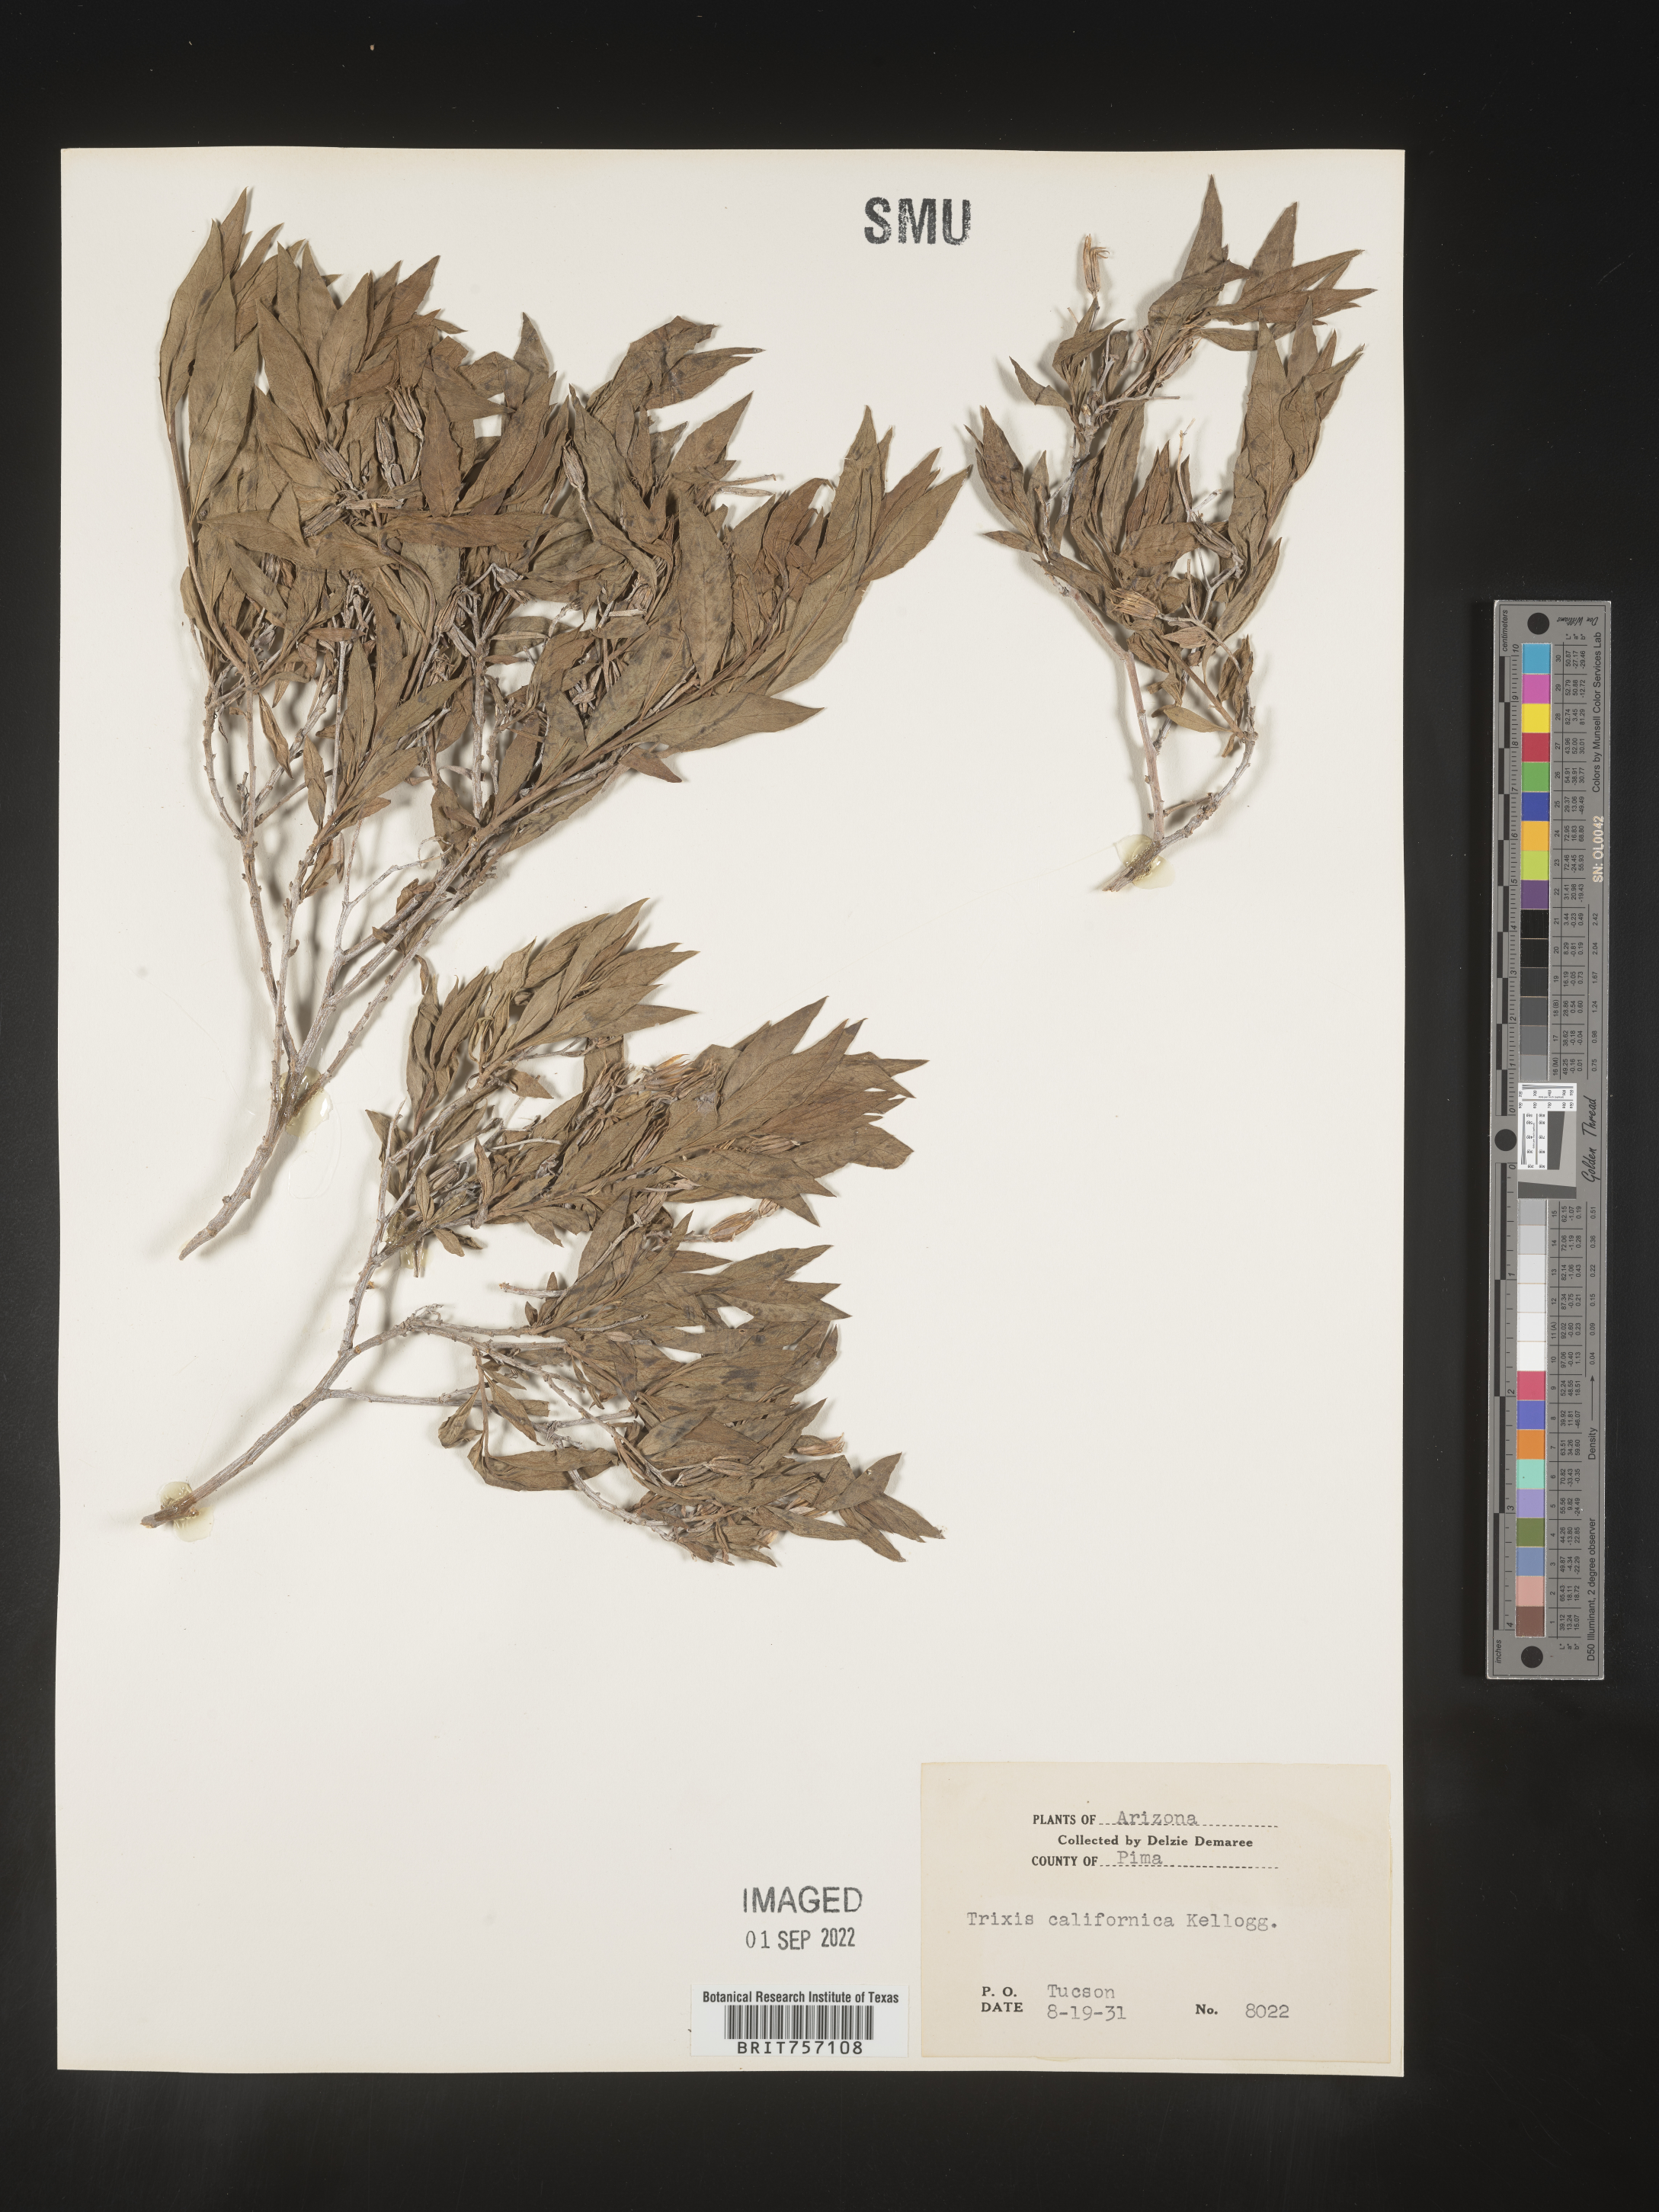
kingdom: Plantae
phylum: Tracheophyta
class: Magnoliopsida
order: Asterales
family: Asteraceae
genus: Trixis
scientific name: Trixis
